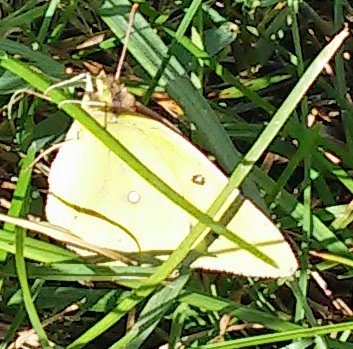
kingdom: Animalia
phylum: Arthropoda
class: Insecta
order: Lepidoptera
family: Pieridae
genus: Colias
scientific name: Colias eurytheme
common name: Orange Sulphur
